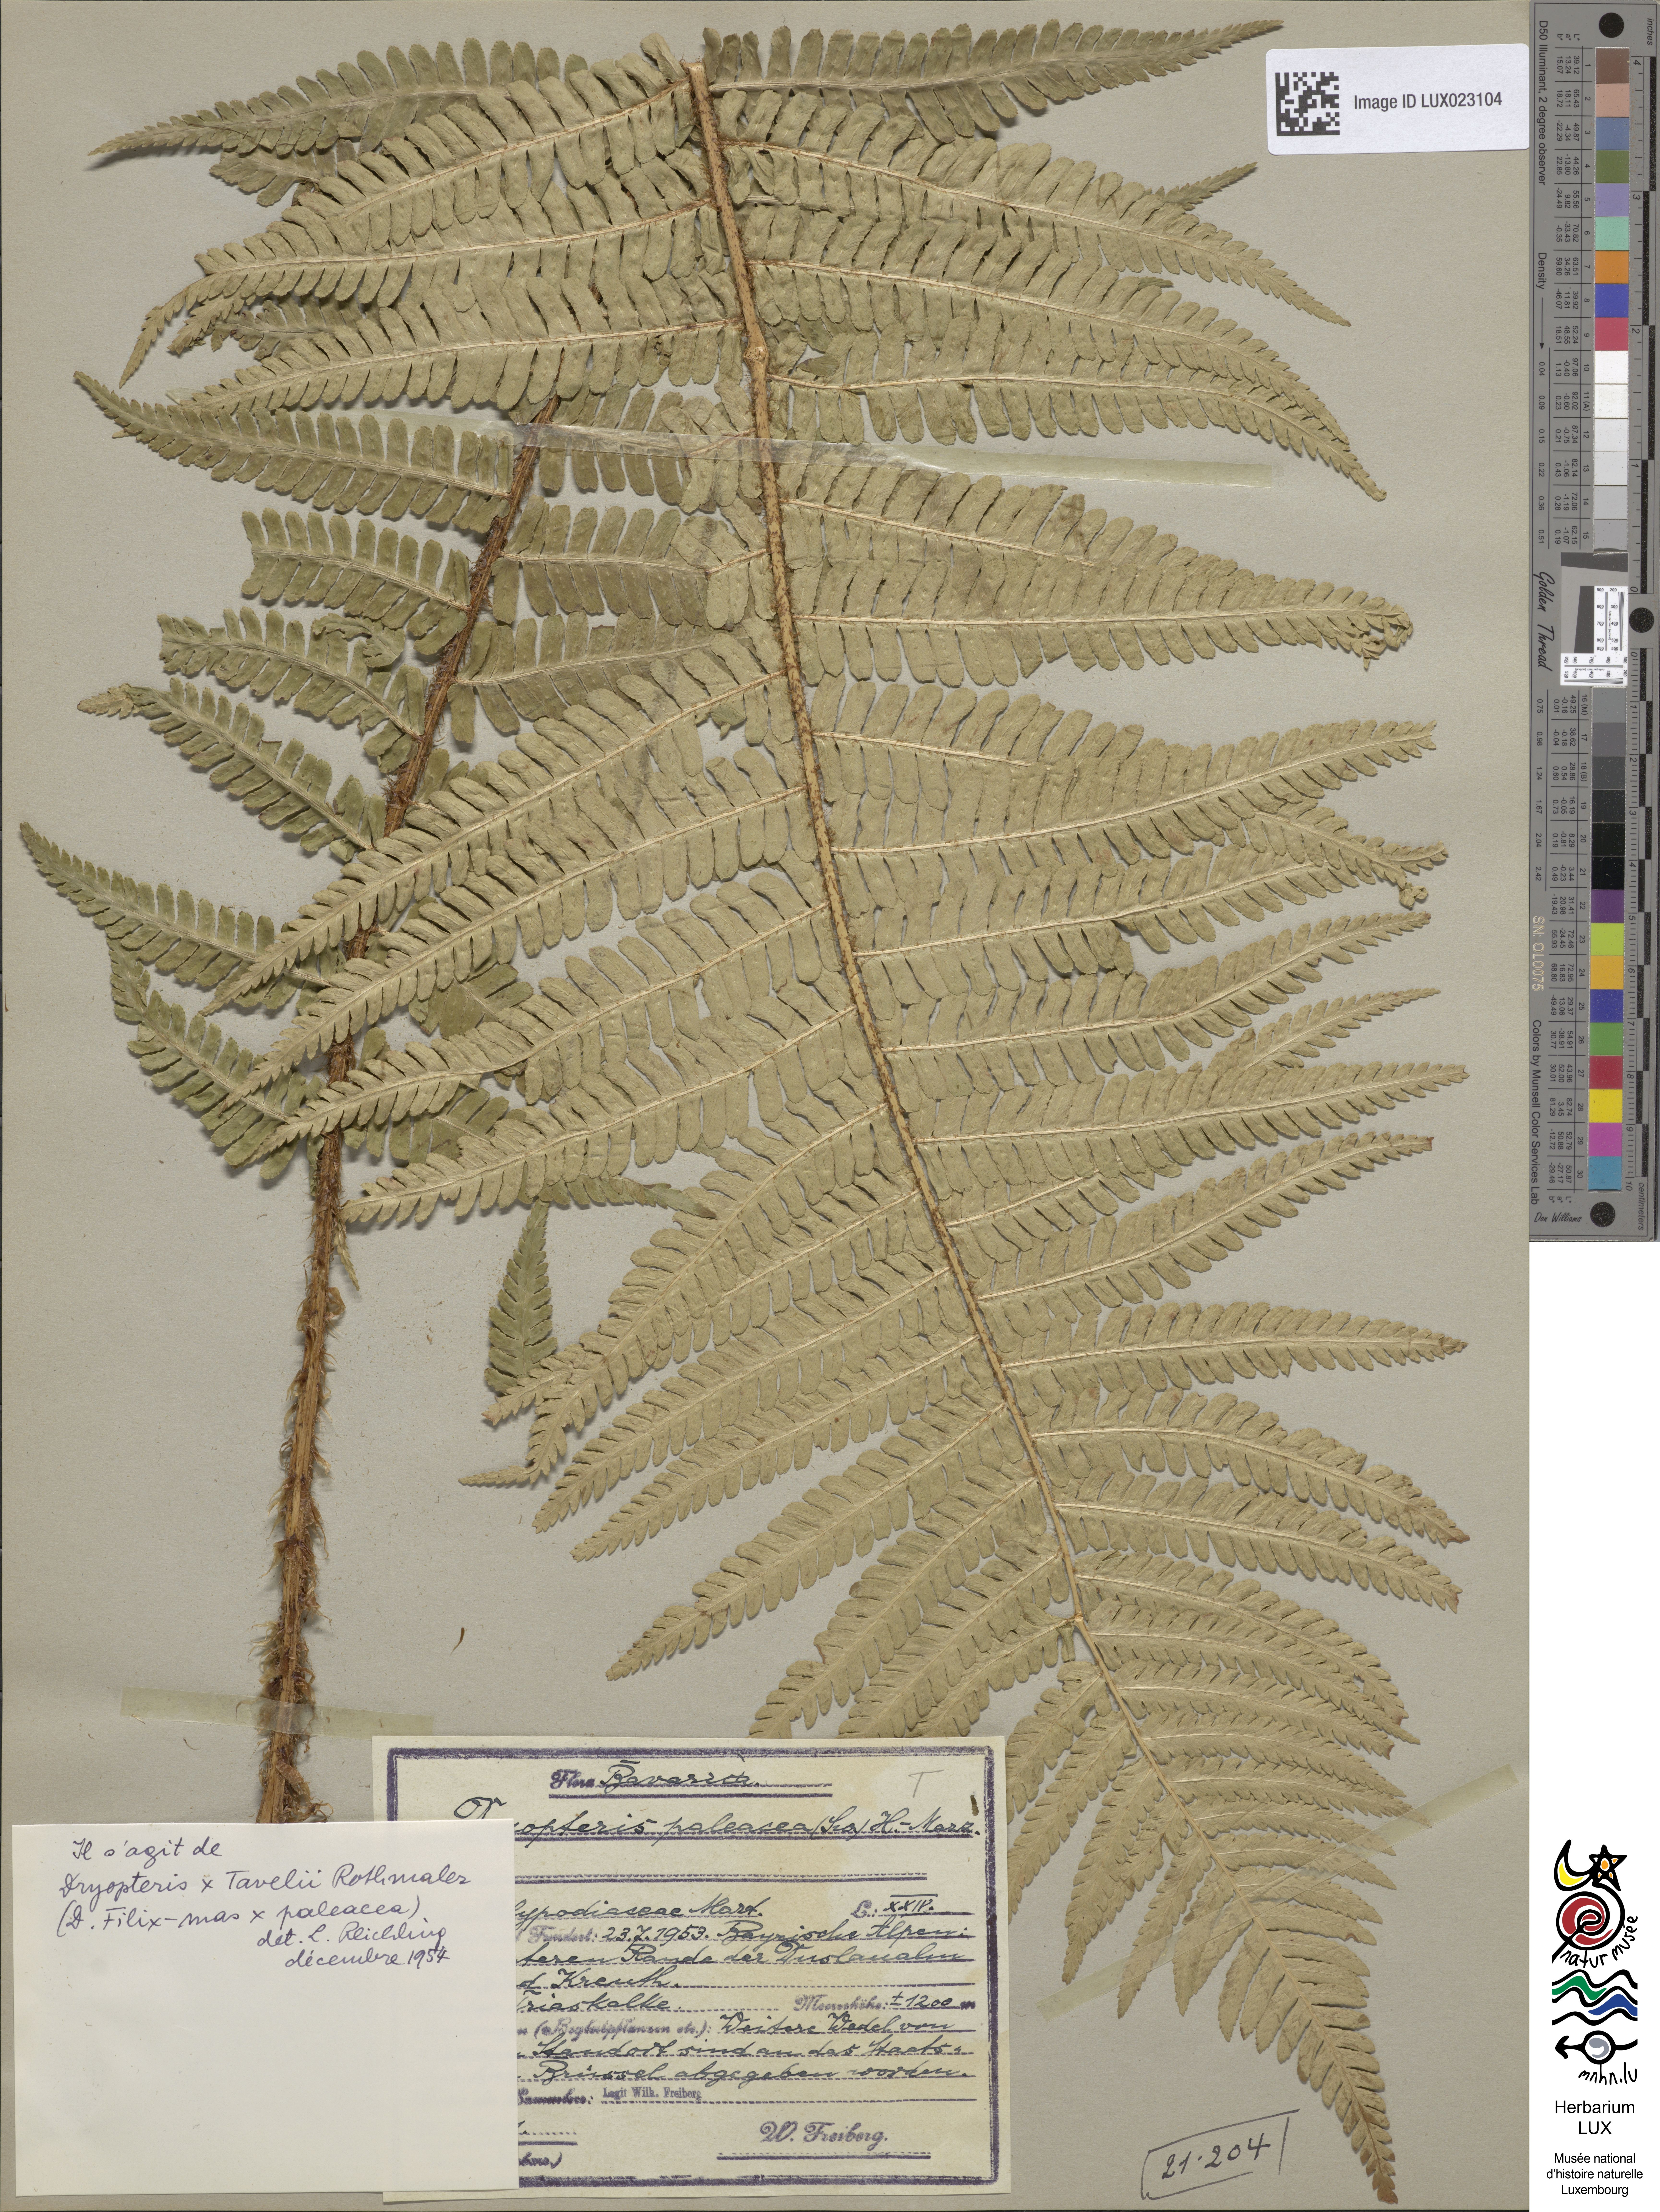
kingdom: Plantae
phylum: Tracheophyta
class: Polypodiopsida
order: Polypodiales
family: Dryopteridaceae
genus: Dryopteris
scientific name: Dryopteris borreri
